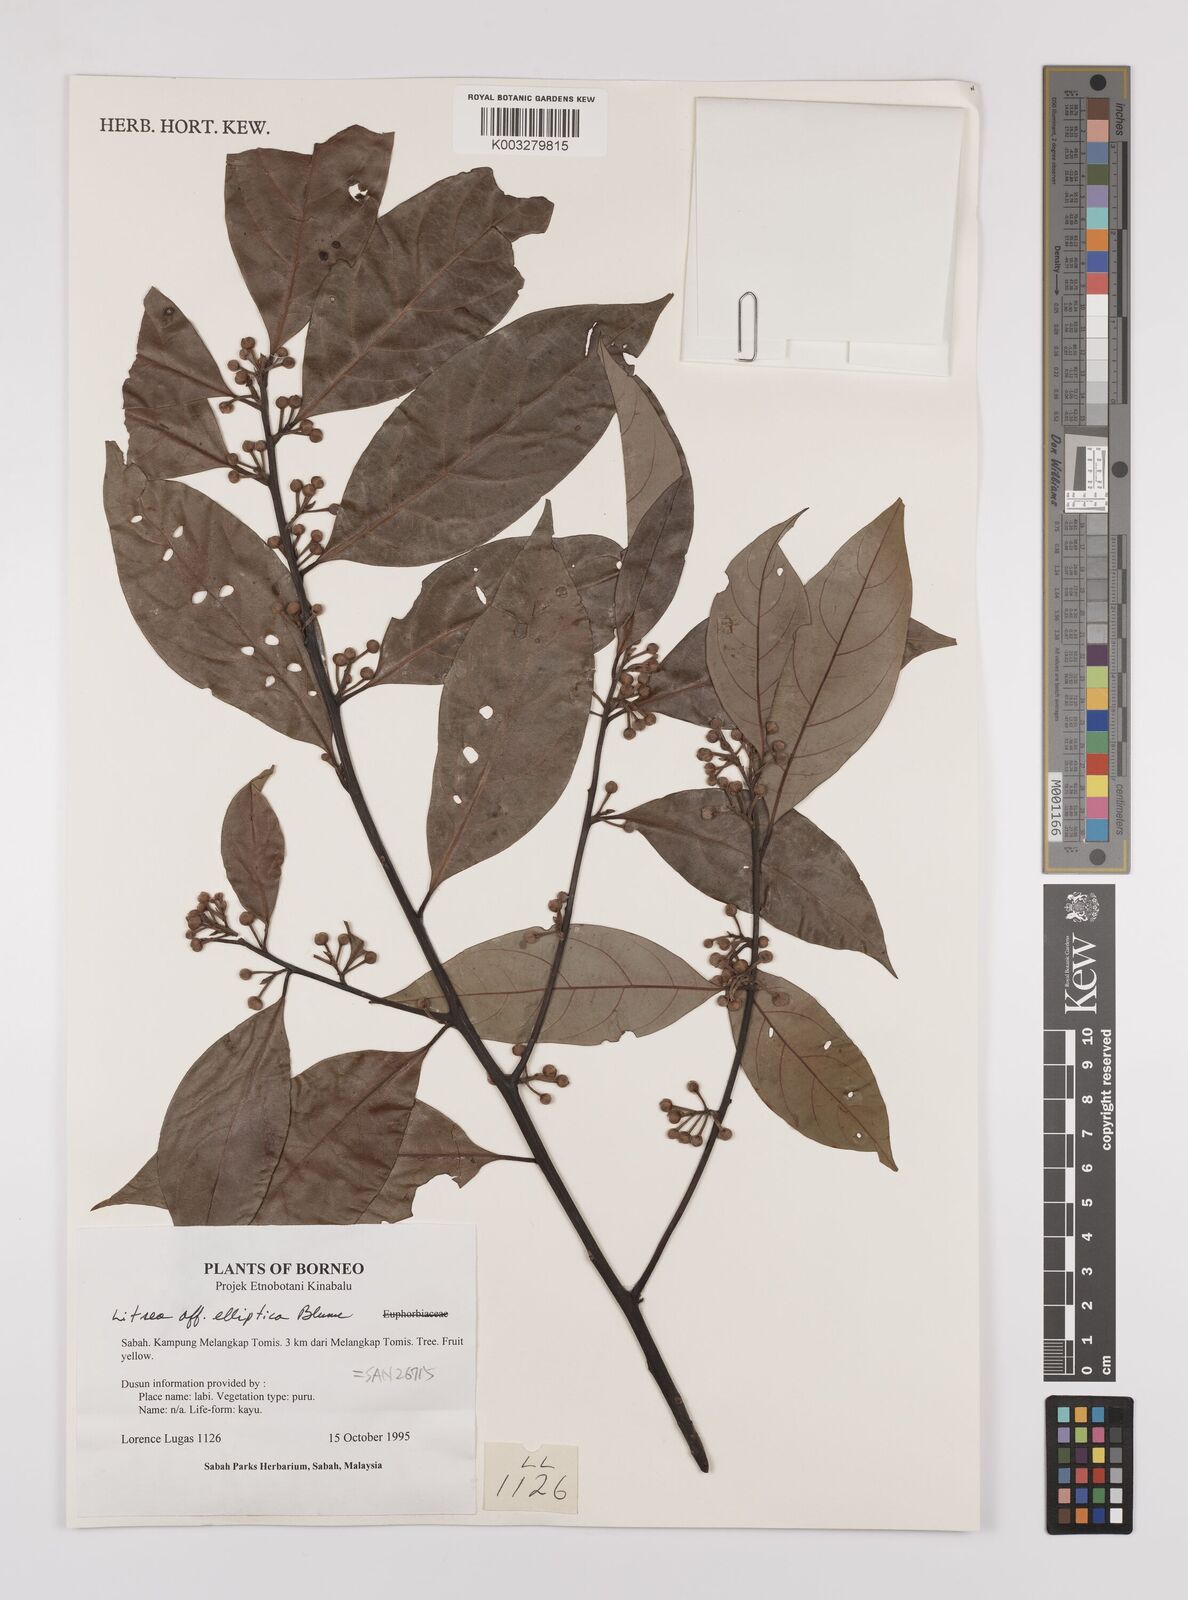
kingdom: Plantae
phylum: Tracheophyta
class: Magnoliopsida
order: Laurales
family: Lauraceae
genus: Litsea
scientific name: Litsea elliptica
